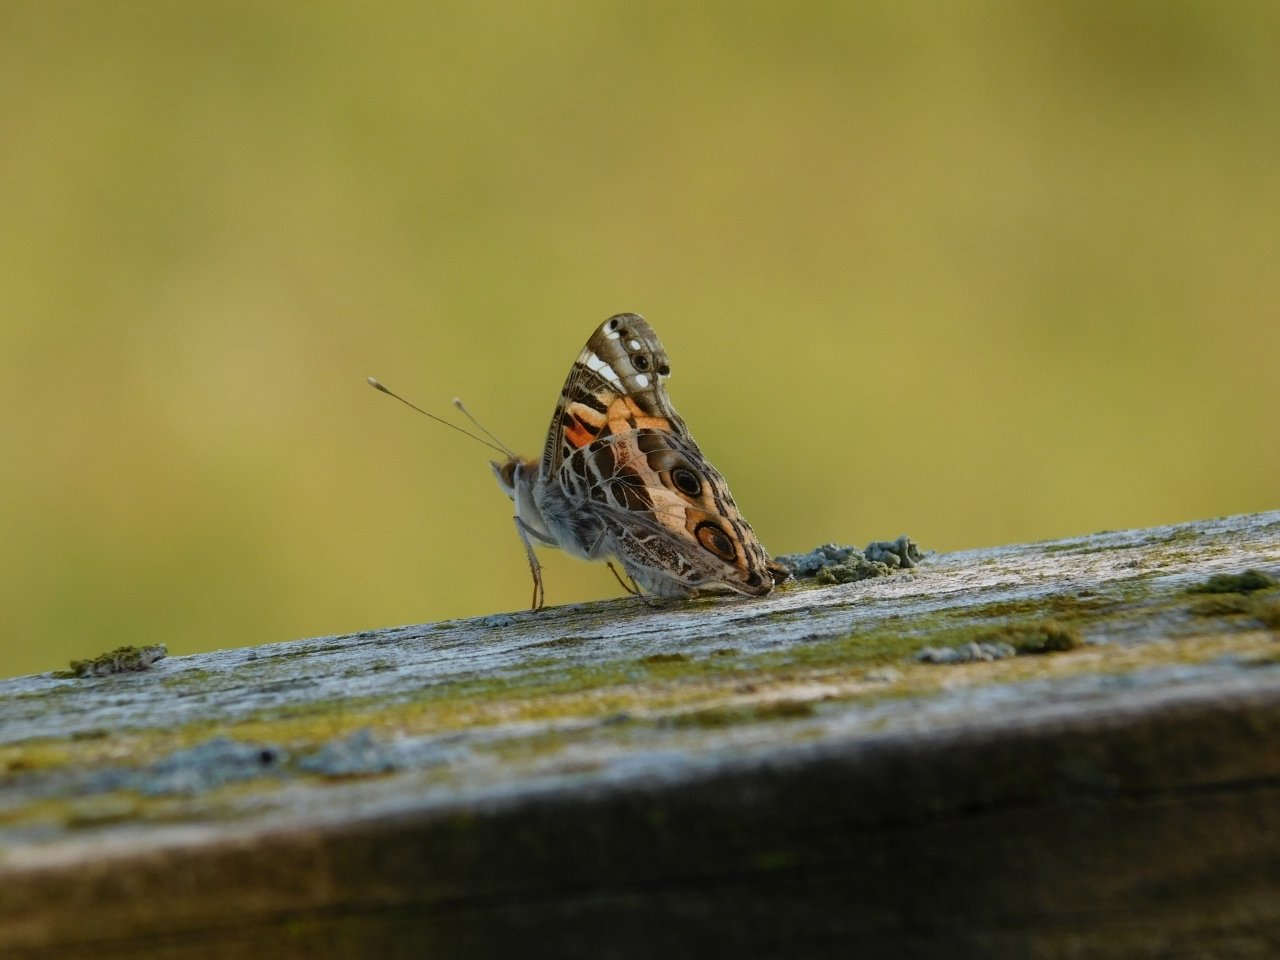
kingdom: Animalia
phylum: Arthropoda
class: Insecta
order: Lepidoptera
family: Nymphalidae
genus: Vanessa
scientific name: Vanessa virginiensis
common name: American Lady
